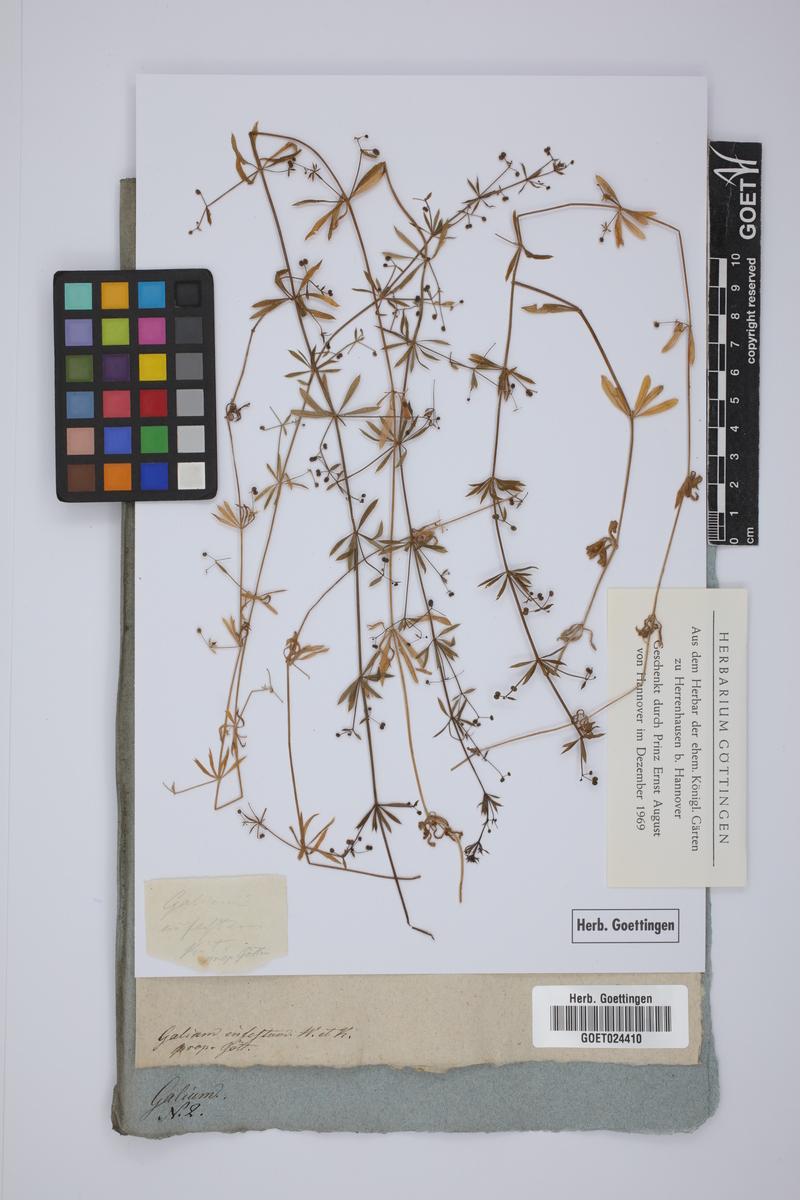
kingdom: Plantae
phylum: Tracheophyta
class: Magnoliopsida
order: Gentianales
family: Rubiaceae
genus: Galium
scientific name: Galium spurium
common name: False cleavers
